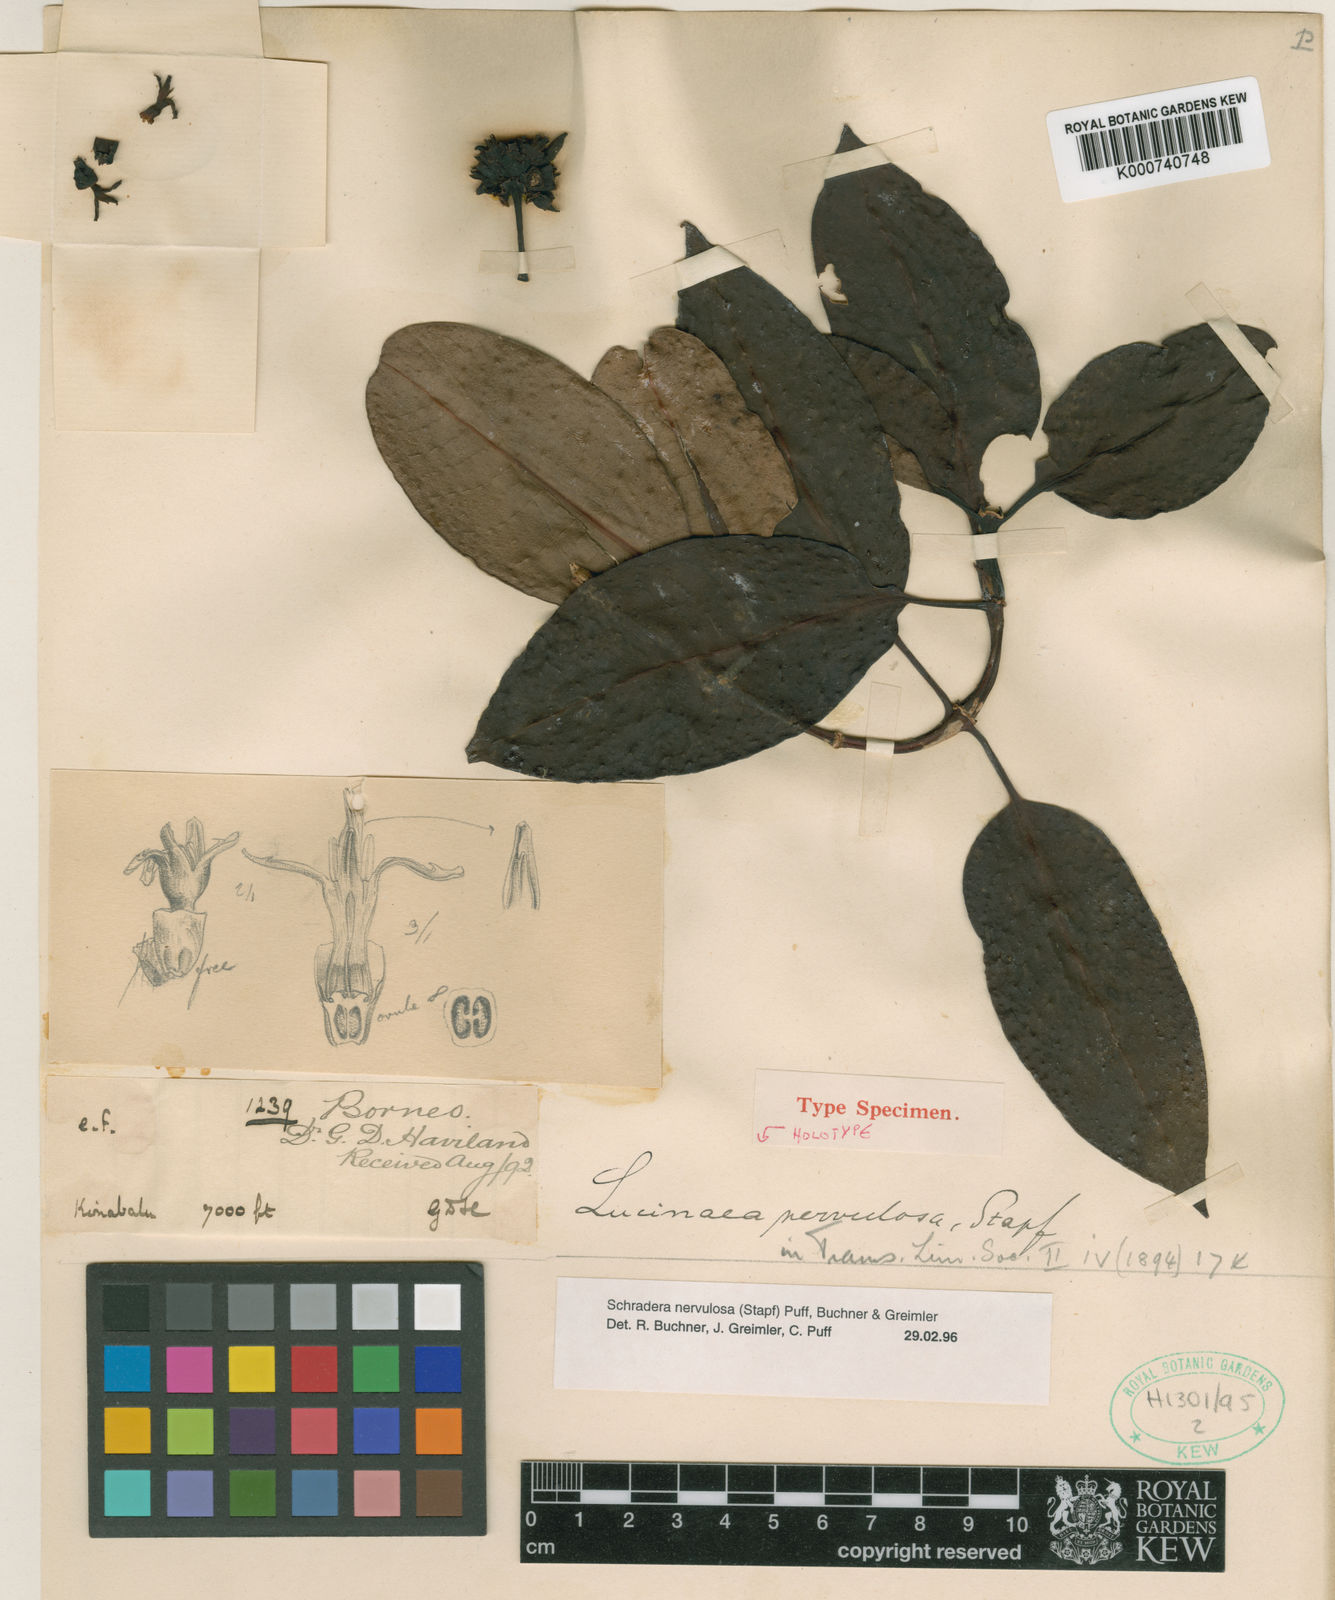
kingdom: Plantae
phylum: Tracheophyta
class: Magnoliopsida
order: Gentianales
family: Rubiaceae
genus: Schradera
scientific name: Schradera nervulosa
